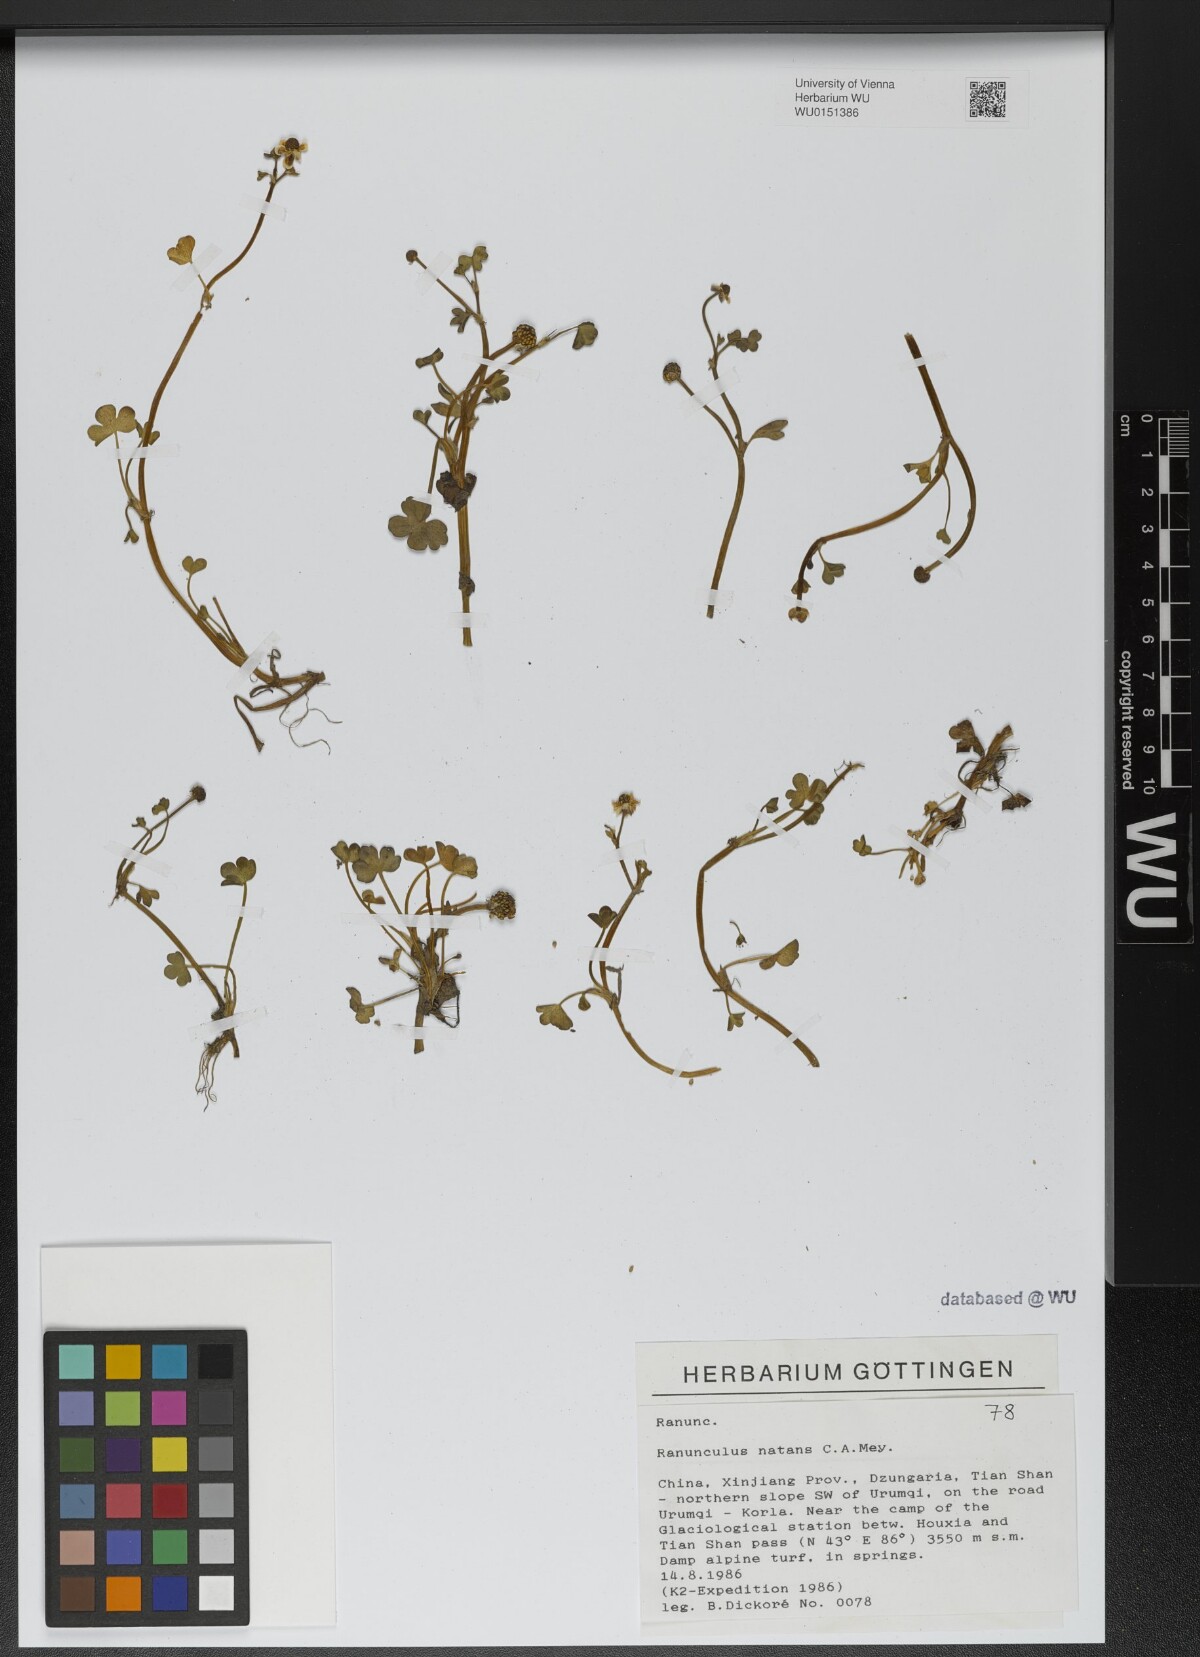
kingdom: Plantae
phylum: Tracheophyta
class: Magnoliopsida
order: Ranunculales
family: Ranunculaceae
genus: Ranunculus
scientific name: Ranunculus natans
